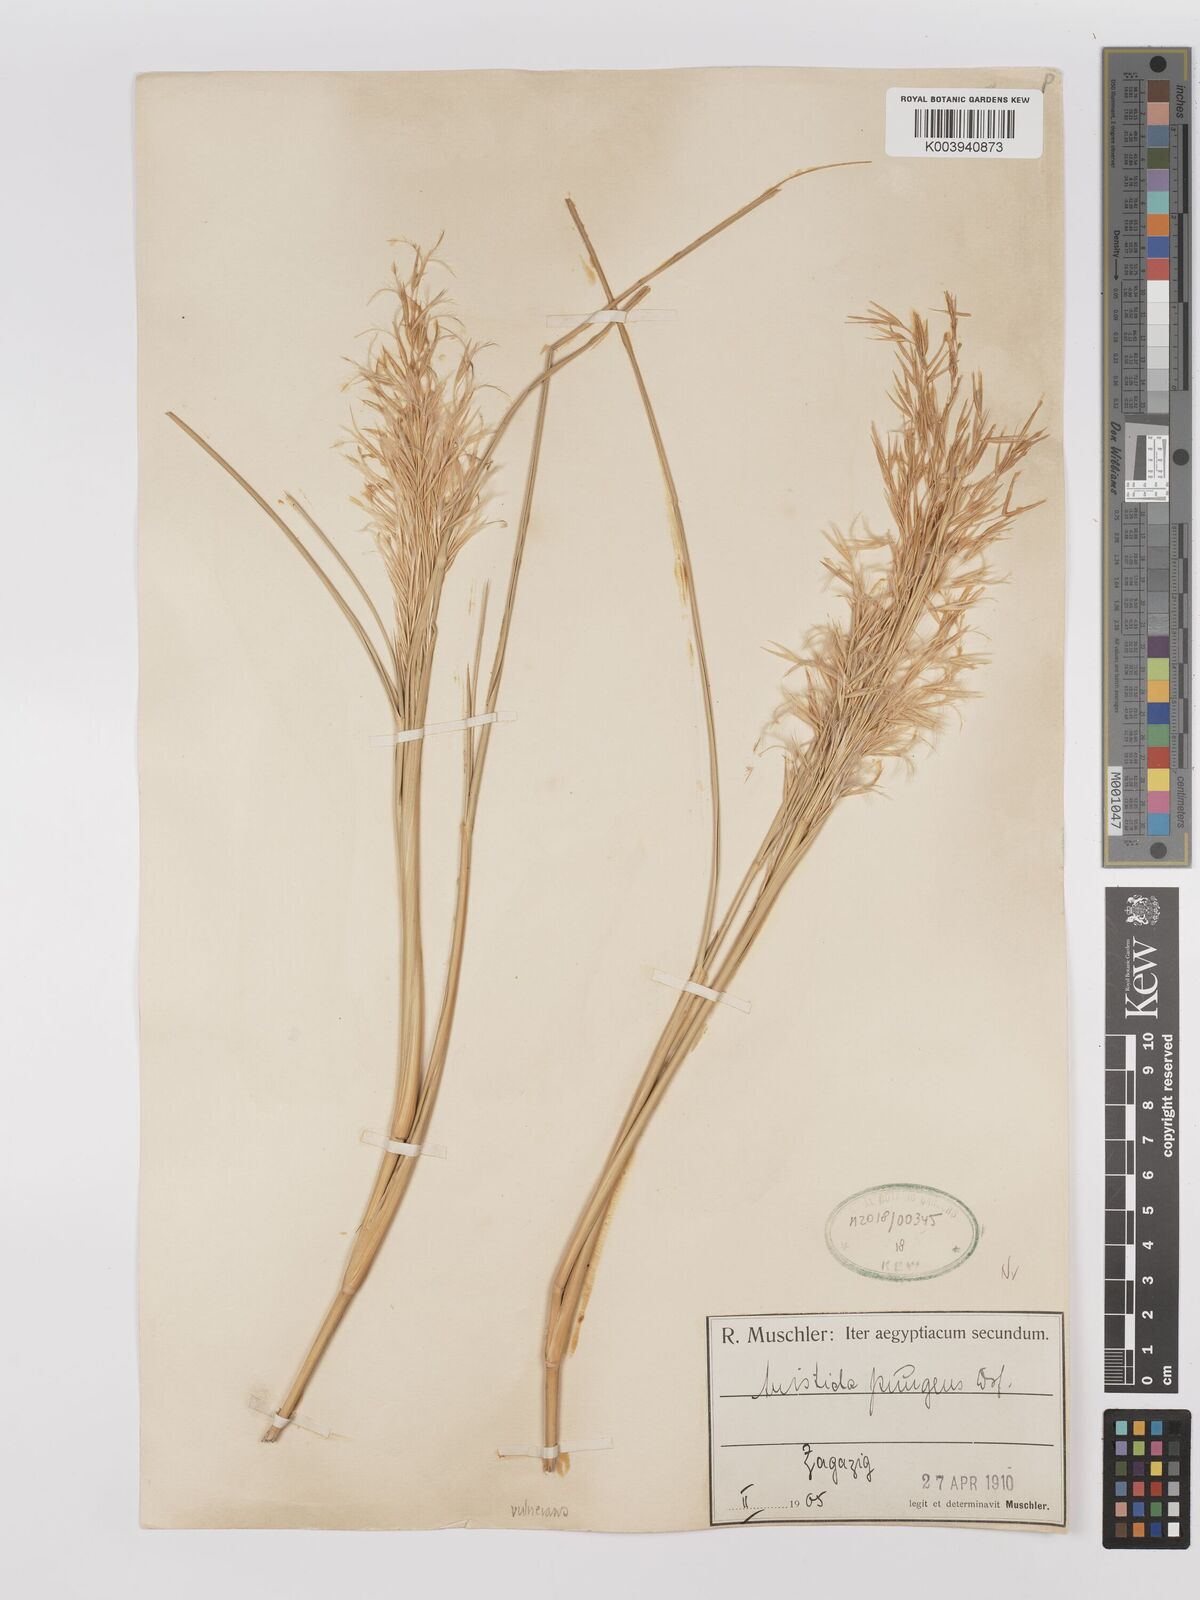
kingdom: Plantae
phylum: Tracheophyta
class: Liliopsida
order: Poales
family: Poaceae
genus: Stipagrostis
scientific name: Stipagrostis vulnerans
